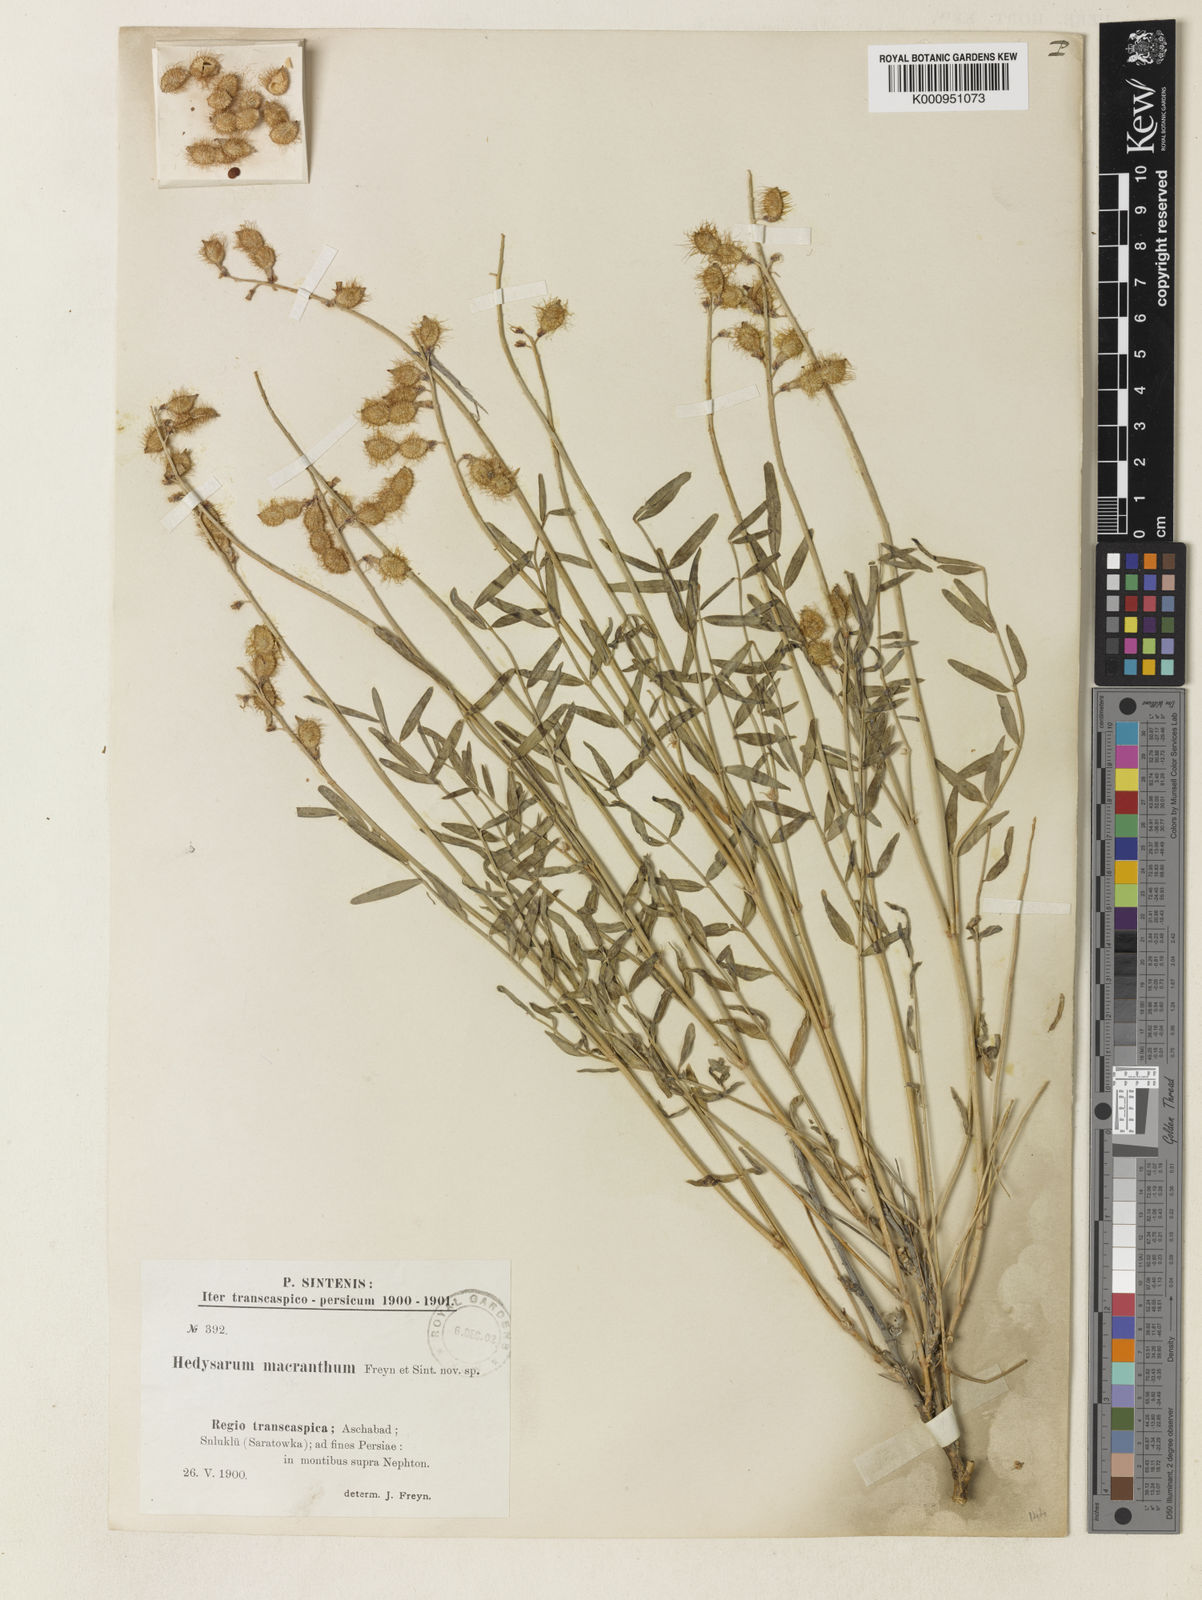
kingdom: Plantae
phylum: Tracheophyta
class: Magnoliopsida
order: Fabales
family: Fabaceae
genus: Hedysarum
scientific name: Hedysarum macranthum
